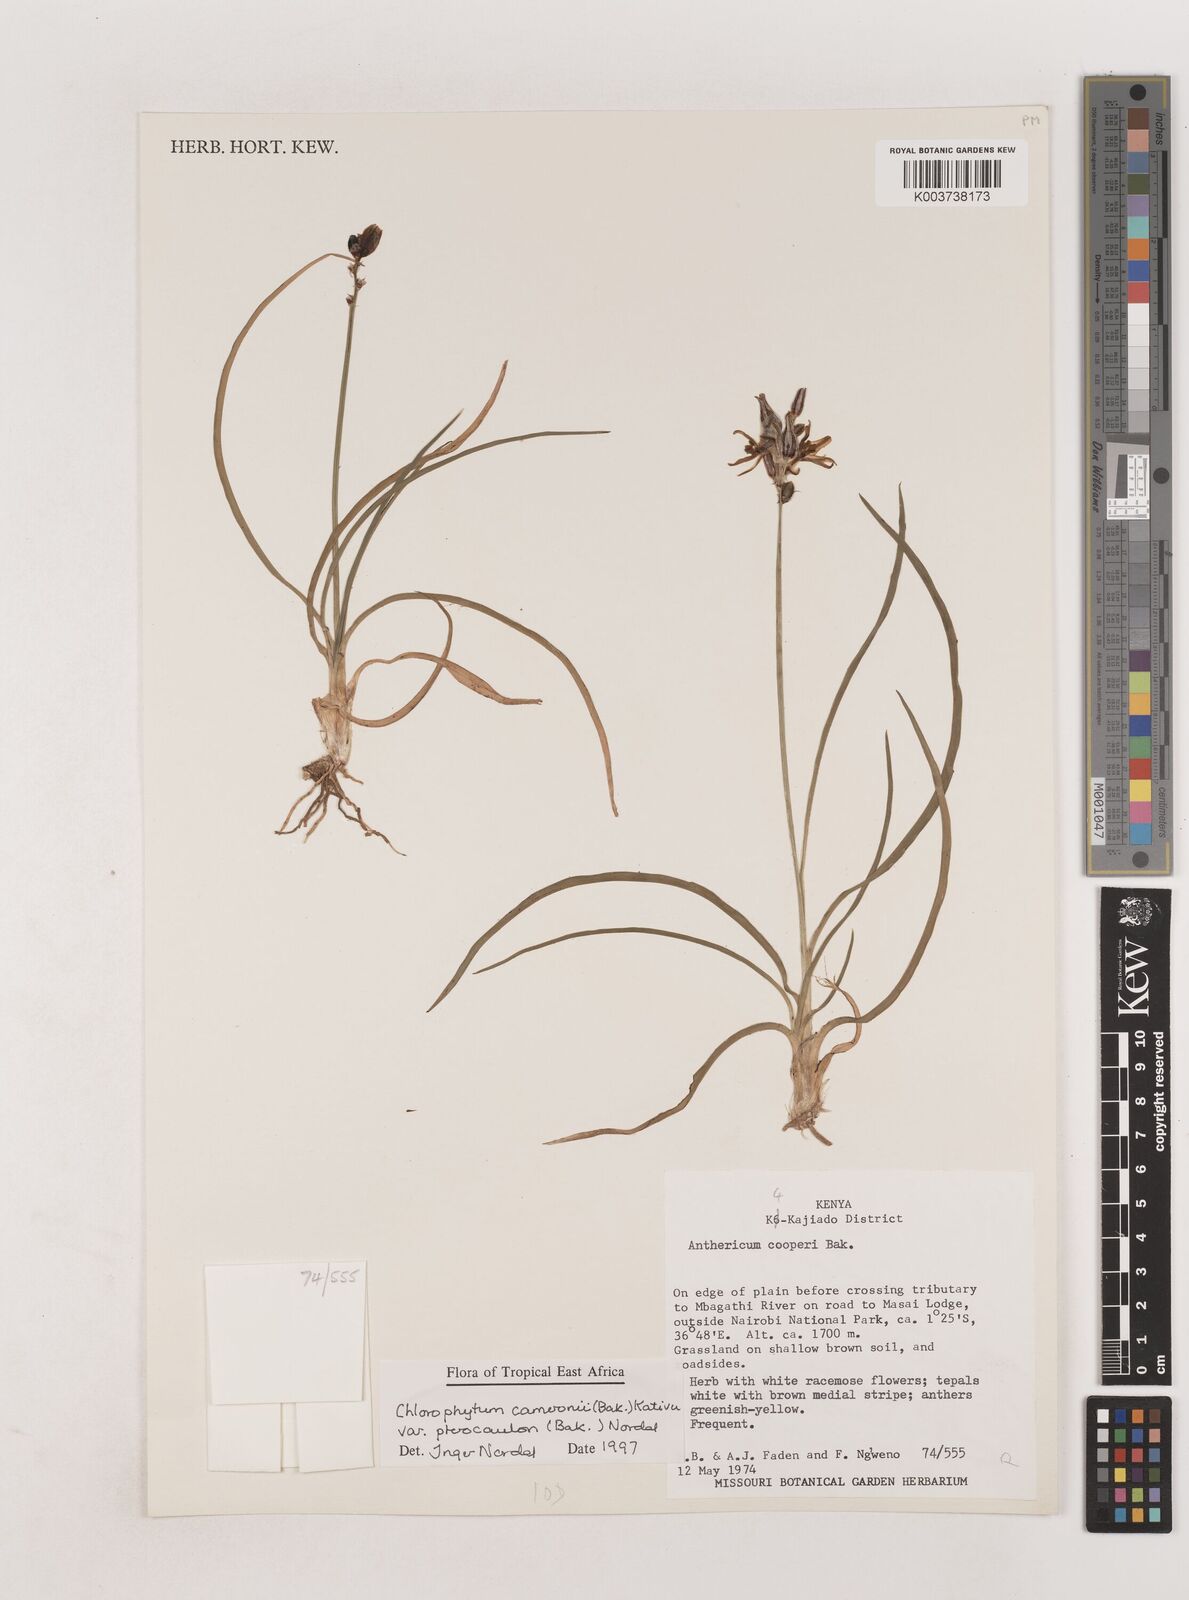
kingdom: Plantae
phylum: Tracheophyta
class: Liliopsida
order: Asparagales
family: Asparagaceae
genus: Chlorophytum
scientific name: Chlorophytum cameronii
